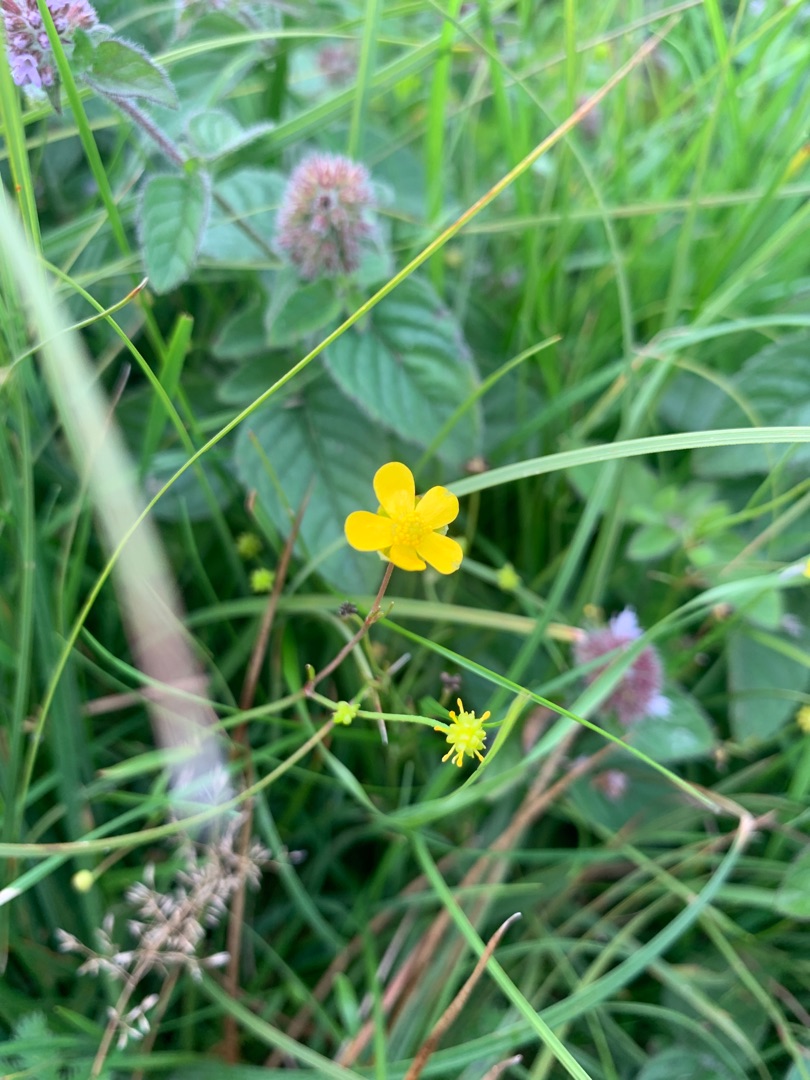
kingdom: Plantae
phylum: Tracheophyta
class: Magnoliopsida
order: Ranunculales
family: Ranunculaceae
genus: Ranunculus
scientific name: Ranunculus
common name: Ranunkelslægten
